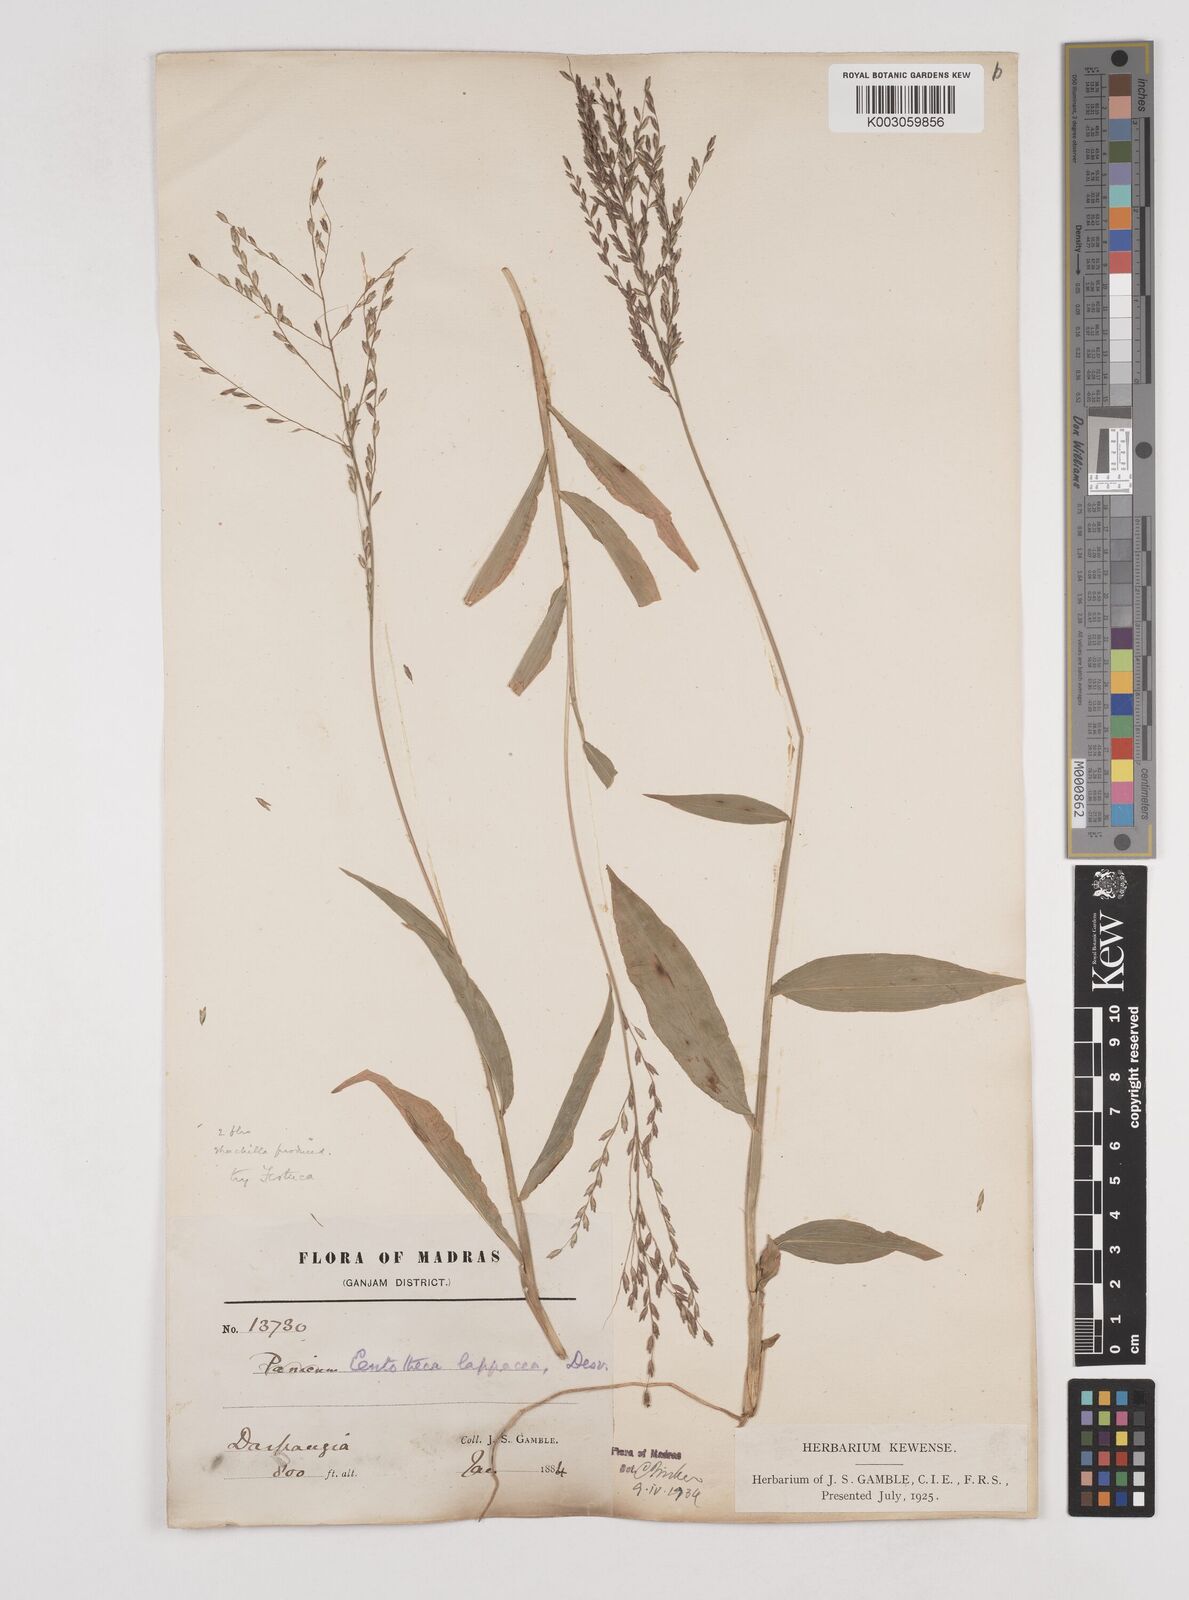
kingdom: Plantae
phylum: Tracheophyta
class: Liliopsida
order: Poales
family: Poaceae
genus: Centotheca
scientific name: Centotheca lappacea
